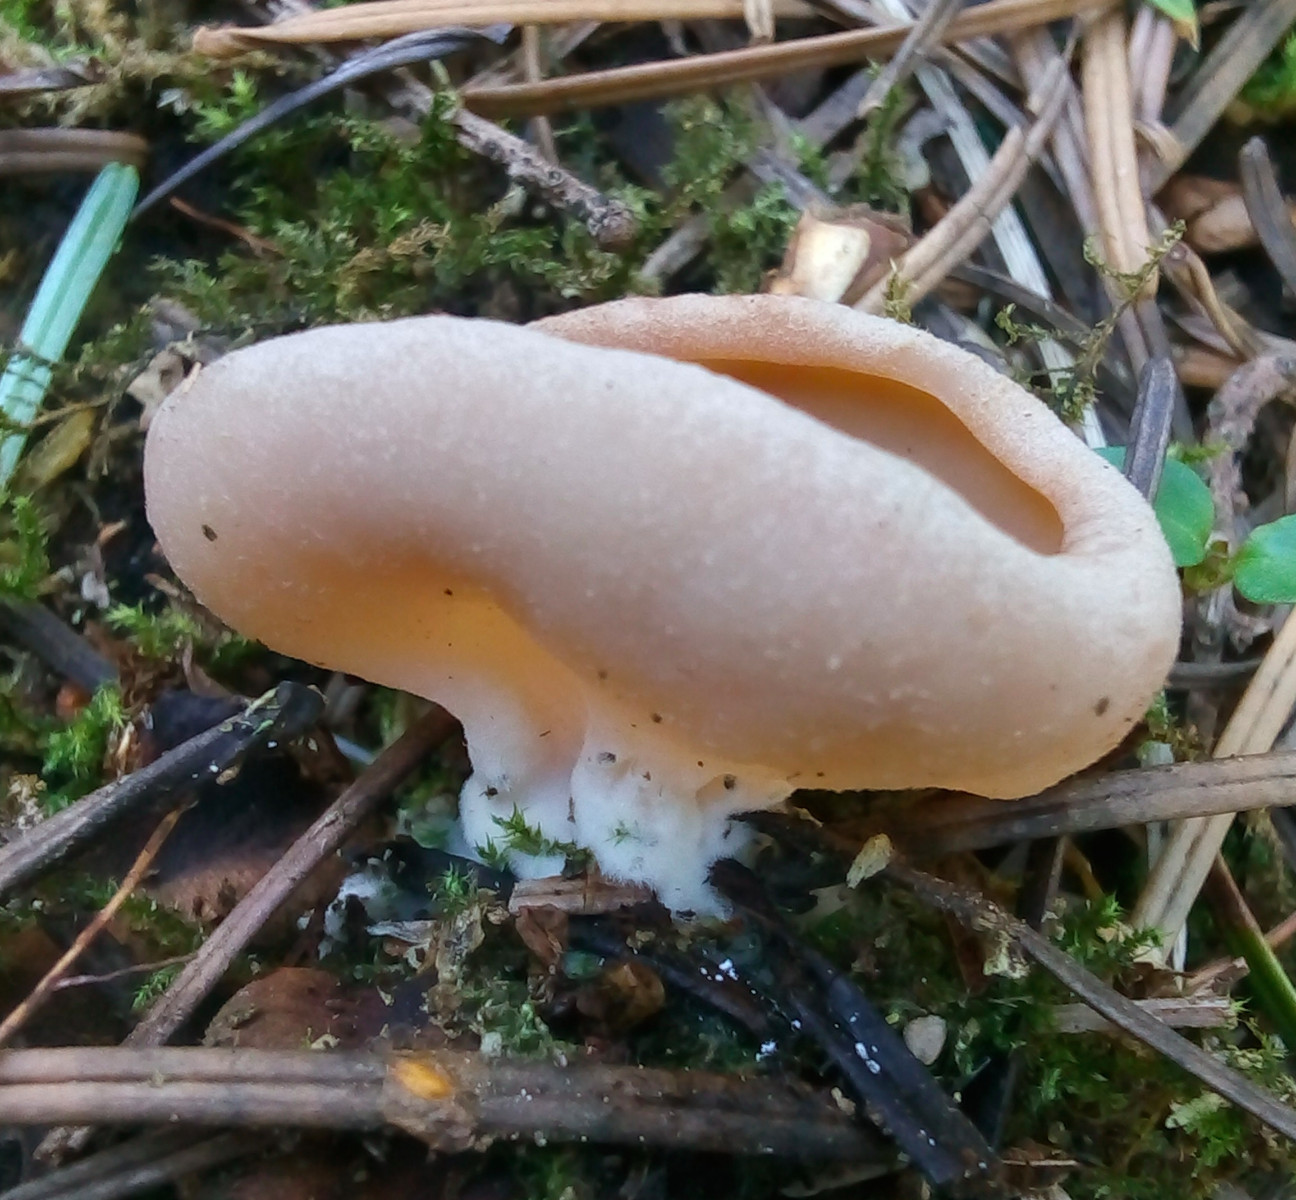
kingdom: Fungi
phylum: Ascomycota
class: Pezizomycetes
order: Pezizales
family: Discinaceae
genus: Discina
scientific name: Discina ancilis
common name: udbredt stenmorkel
